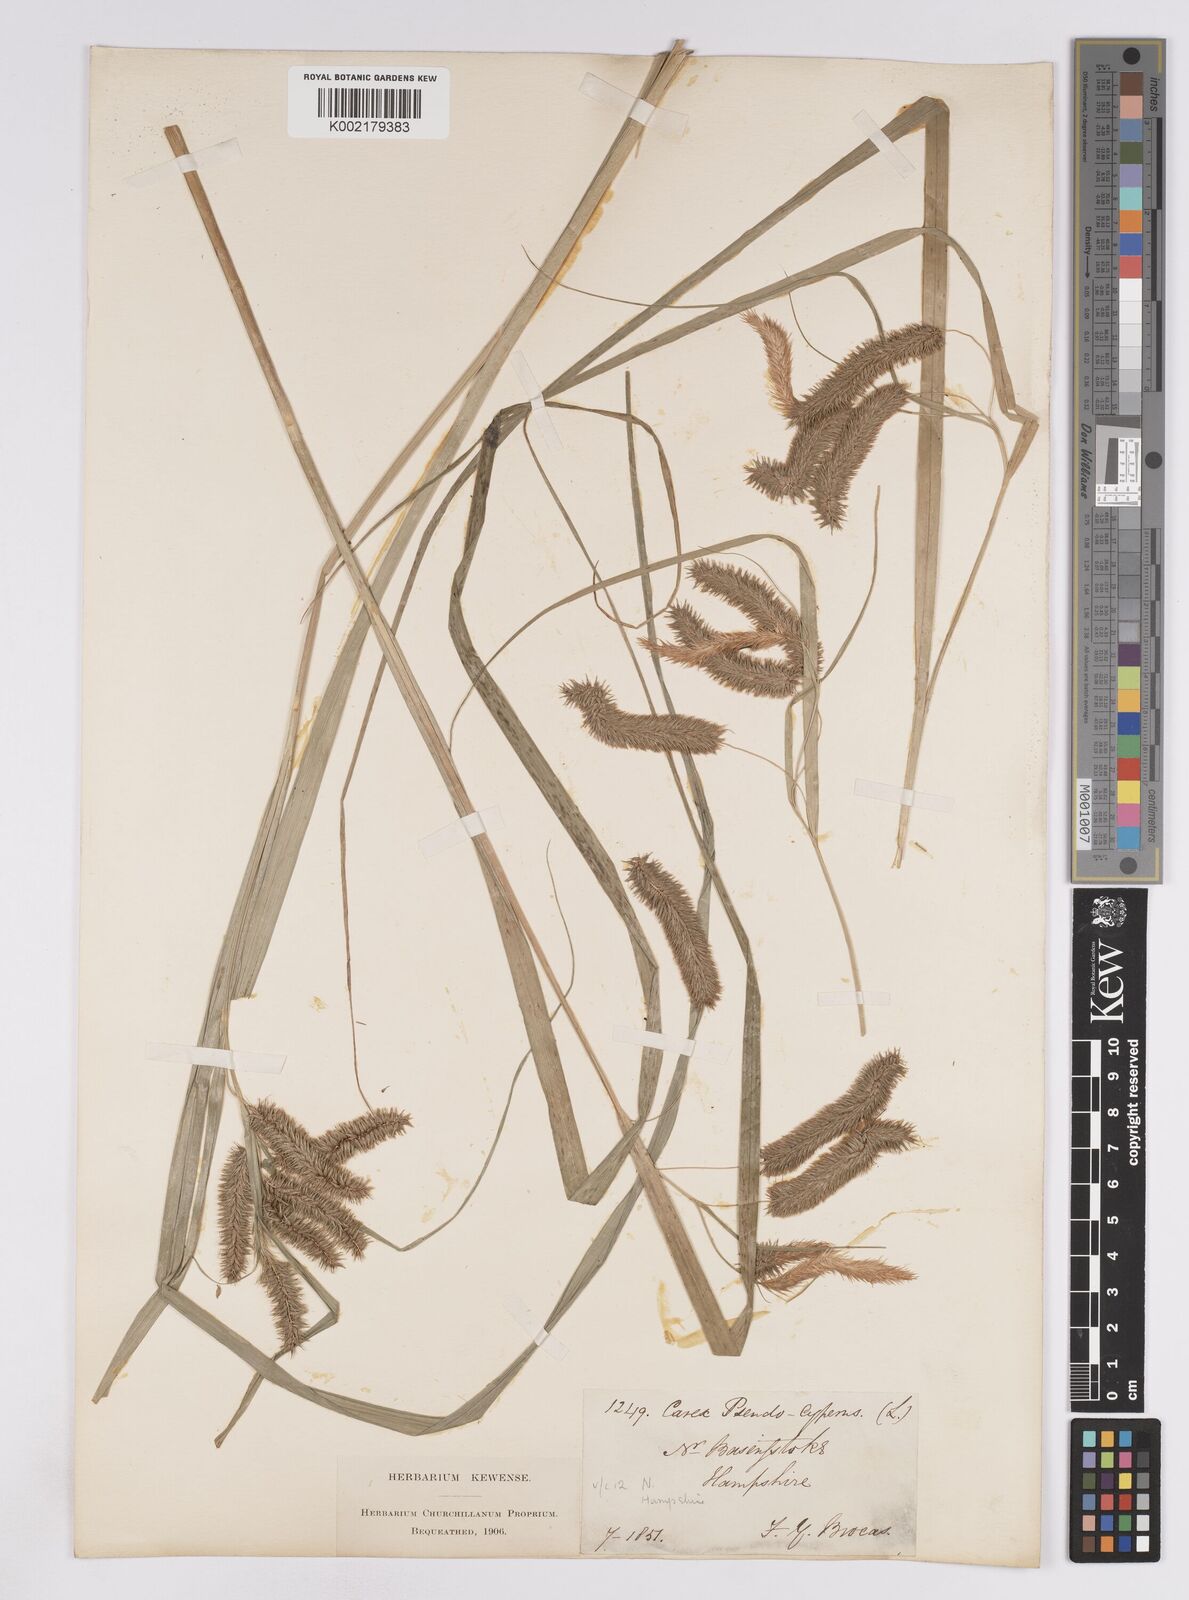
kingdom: Plantae
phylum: Tracheophyta
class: Liliopsida
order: Poales
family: Cyperaceae
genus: Carex
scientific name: Carex pseudocyperus
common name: Cyperus sedge
